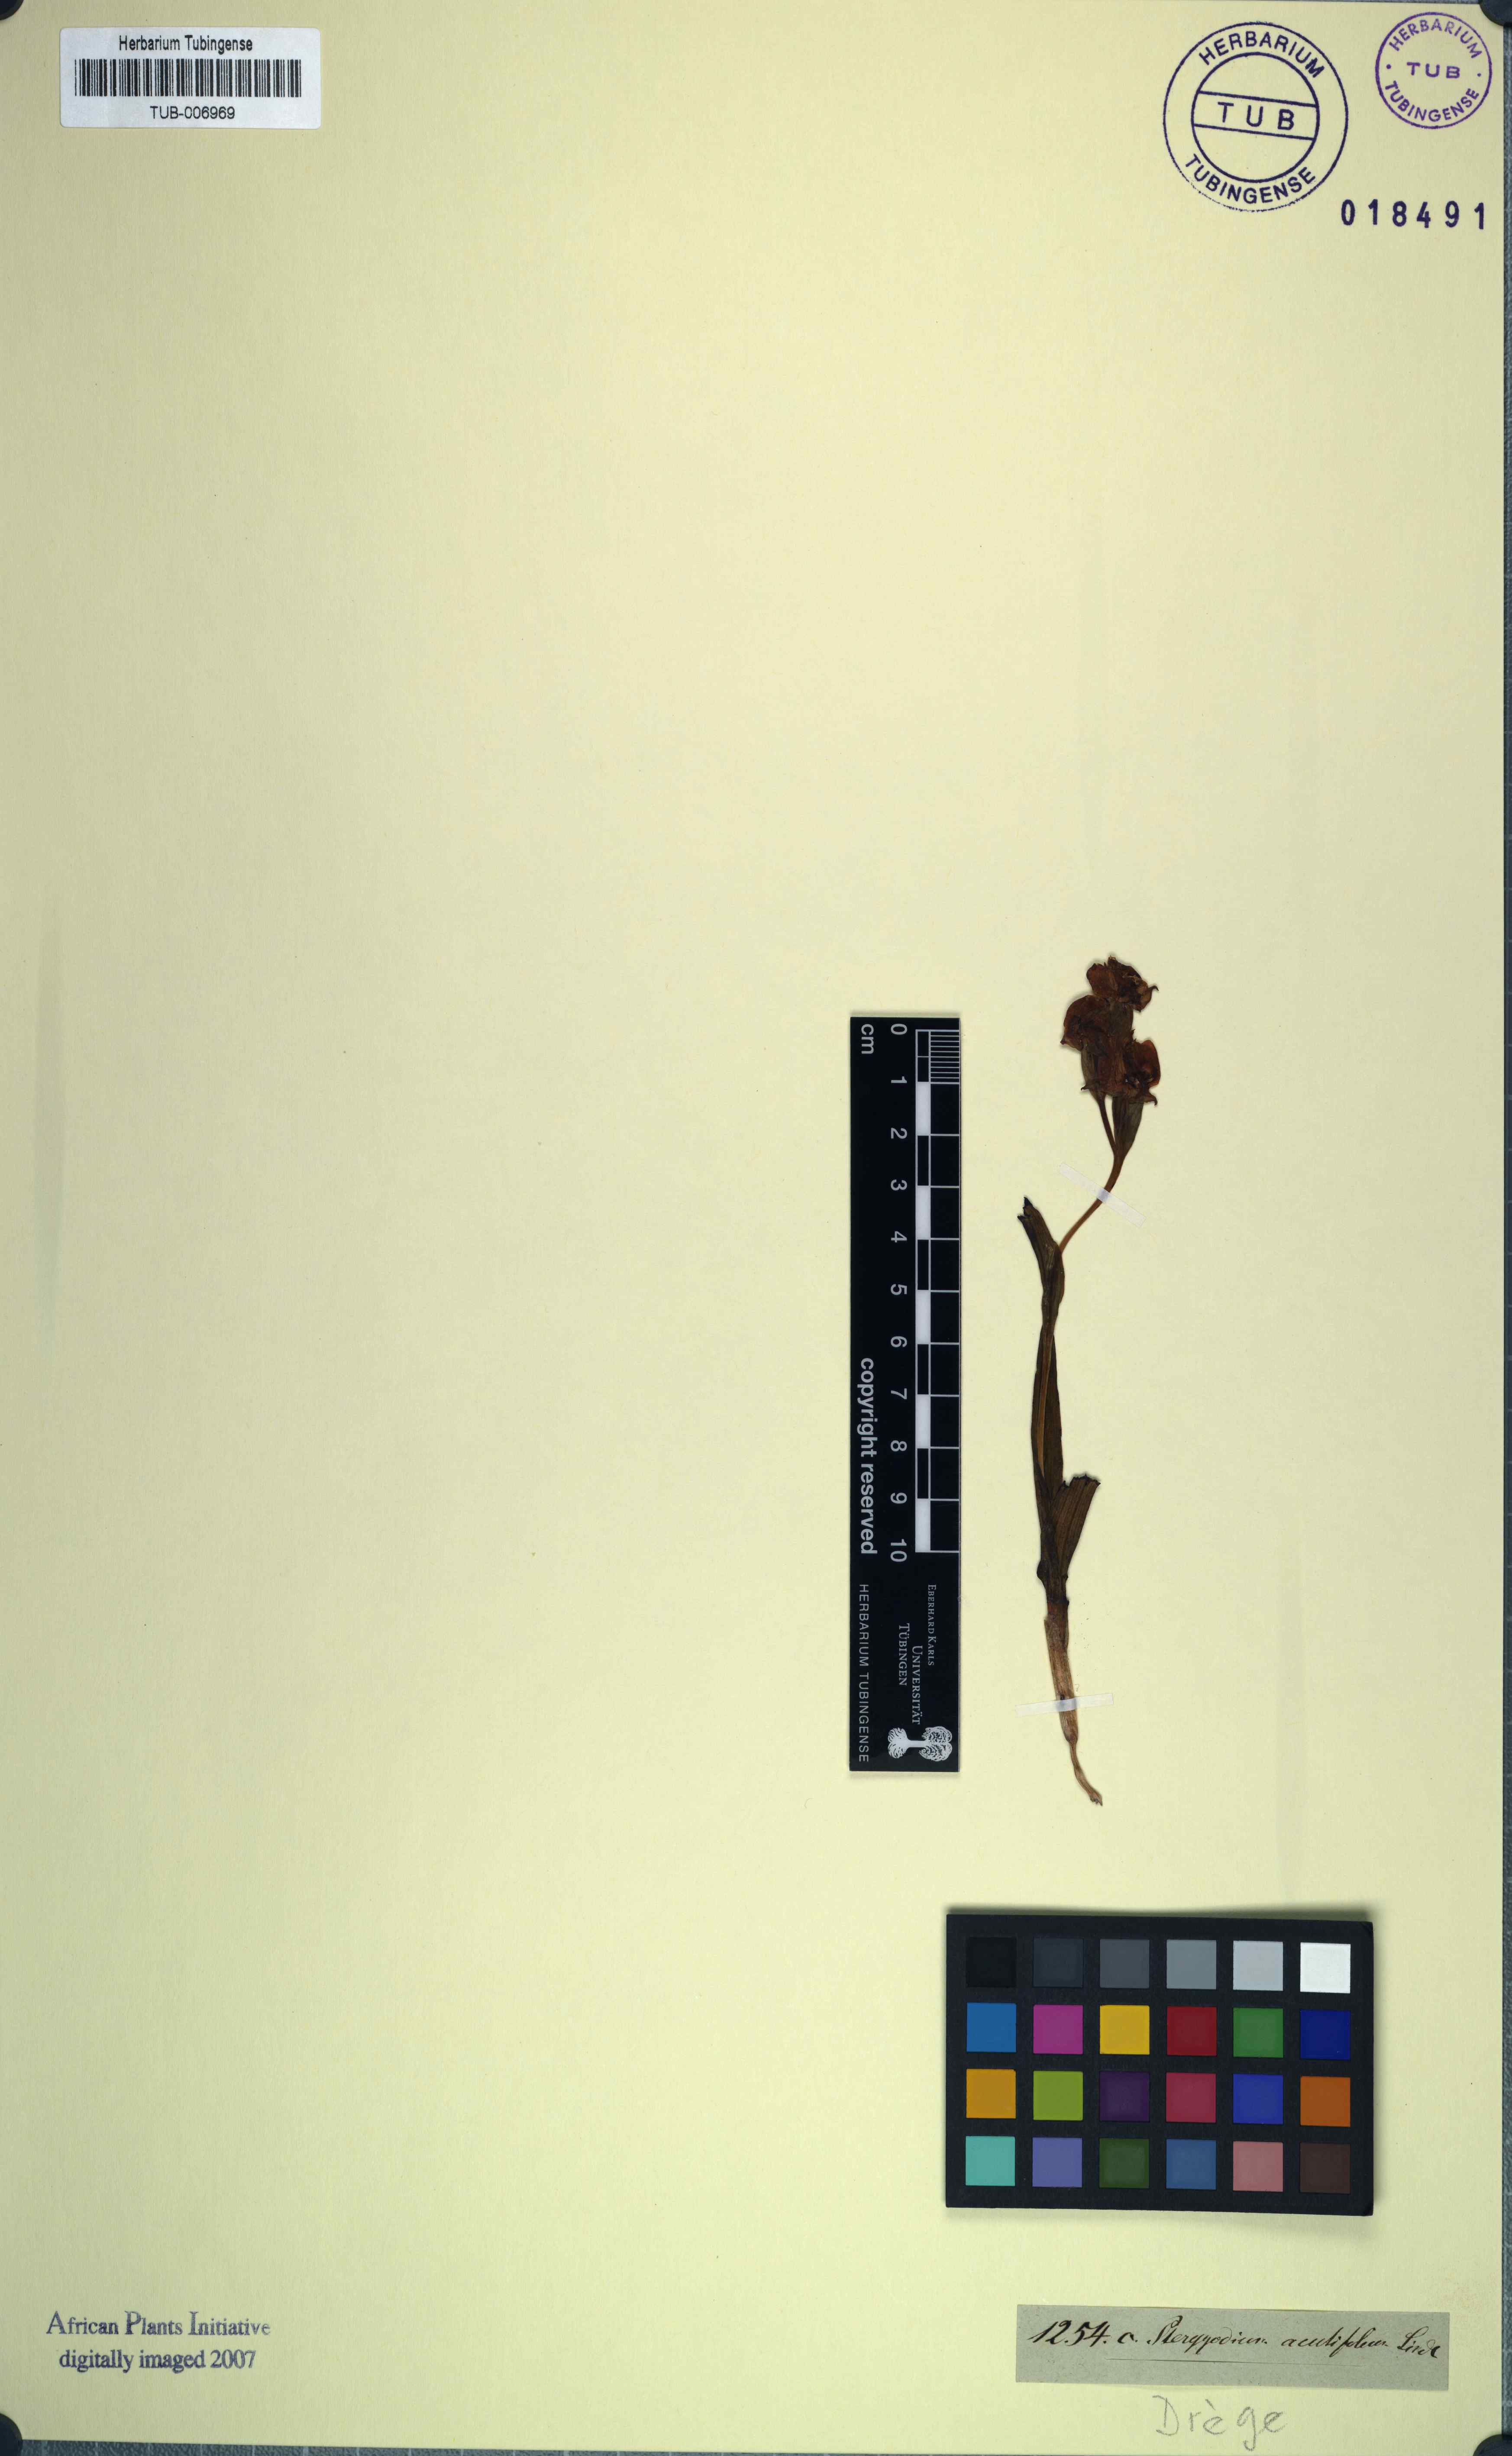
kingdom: Plantae
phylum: Tracheophyta
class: Liliopsida
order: Asparagales
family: Orchidaceae
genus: Pterygodium
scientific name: Pterygodium acutifolium
